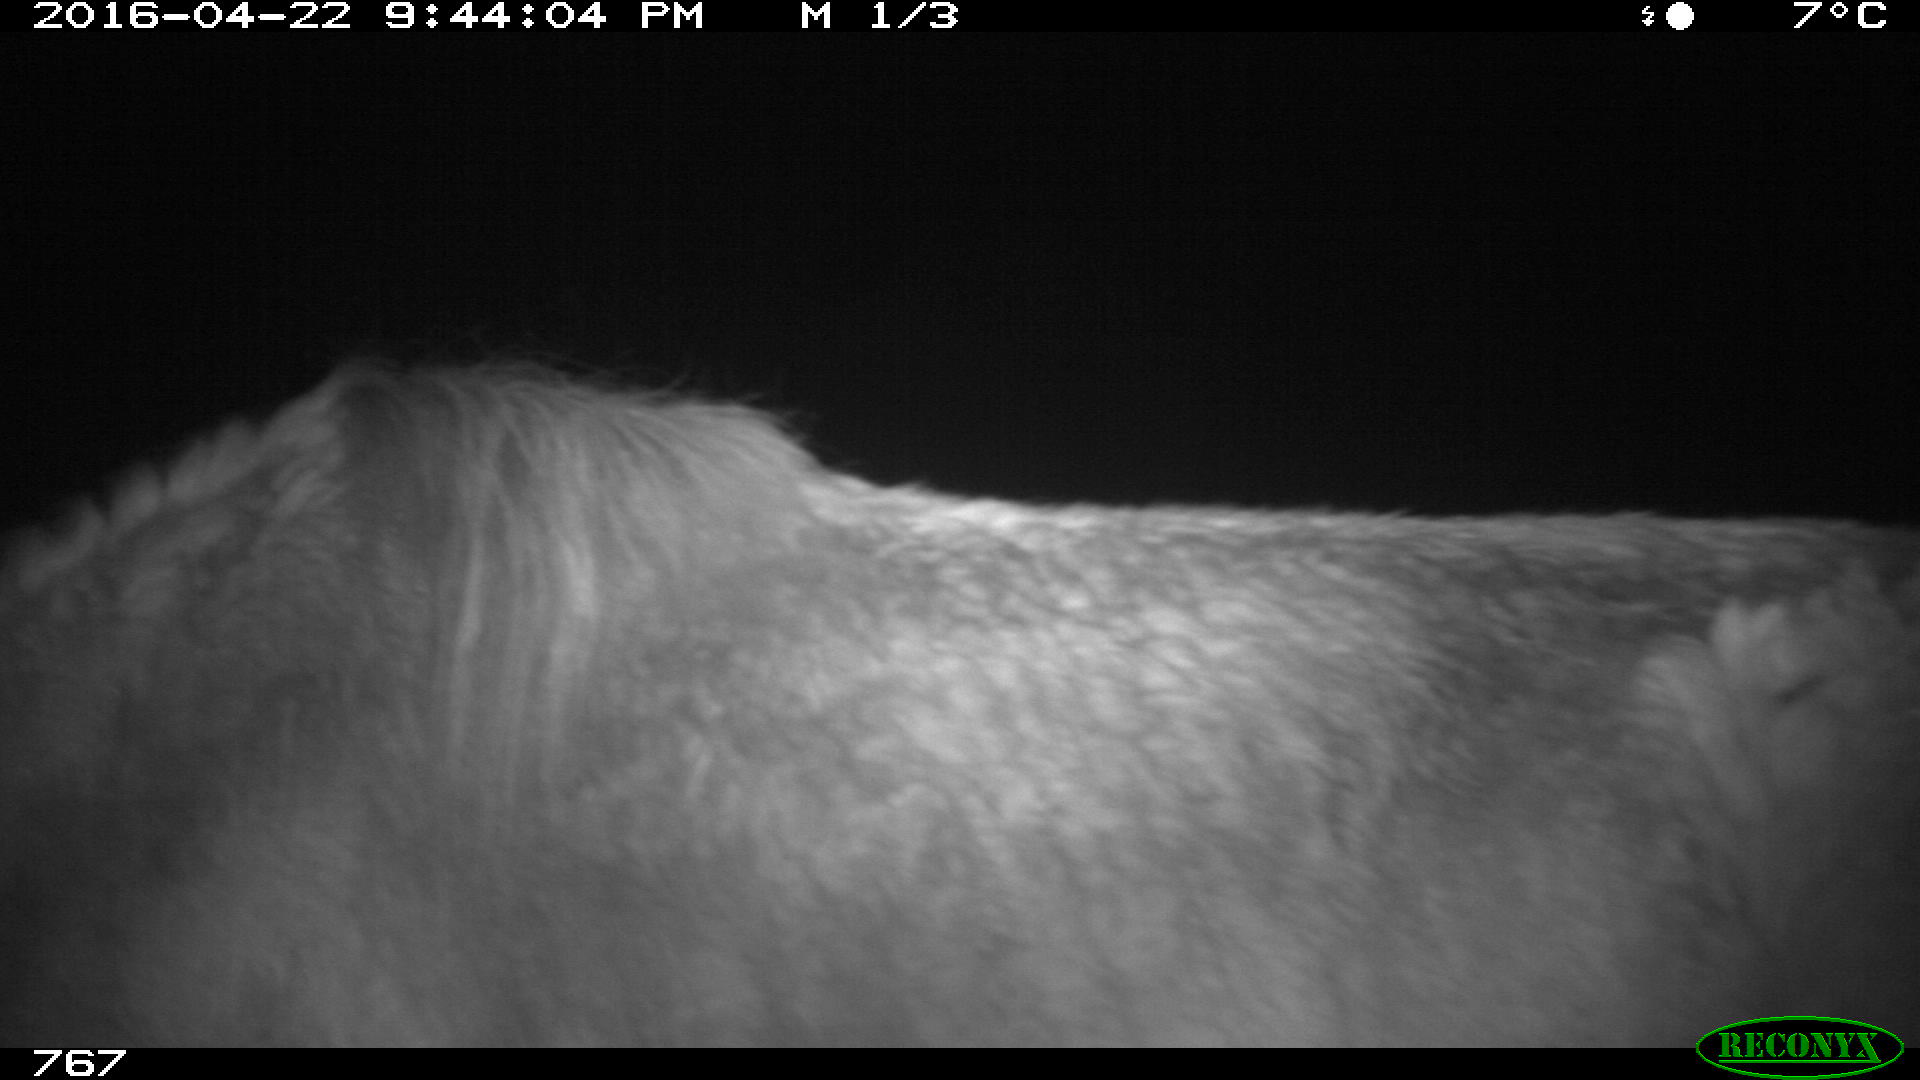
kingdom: Animalia
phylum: Chordata
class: Mammalia
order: Perissodactyla
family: Equidae
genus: Equus
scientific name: Equus caballus
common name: Horse
